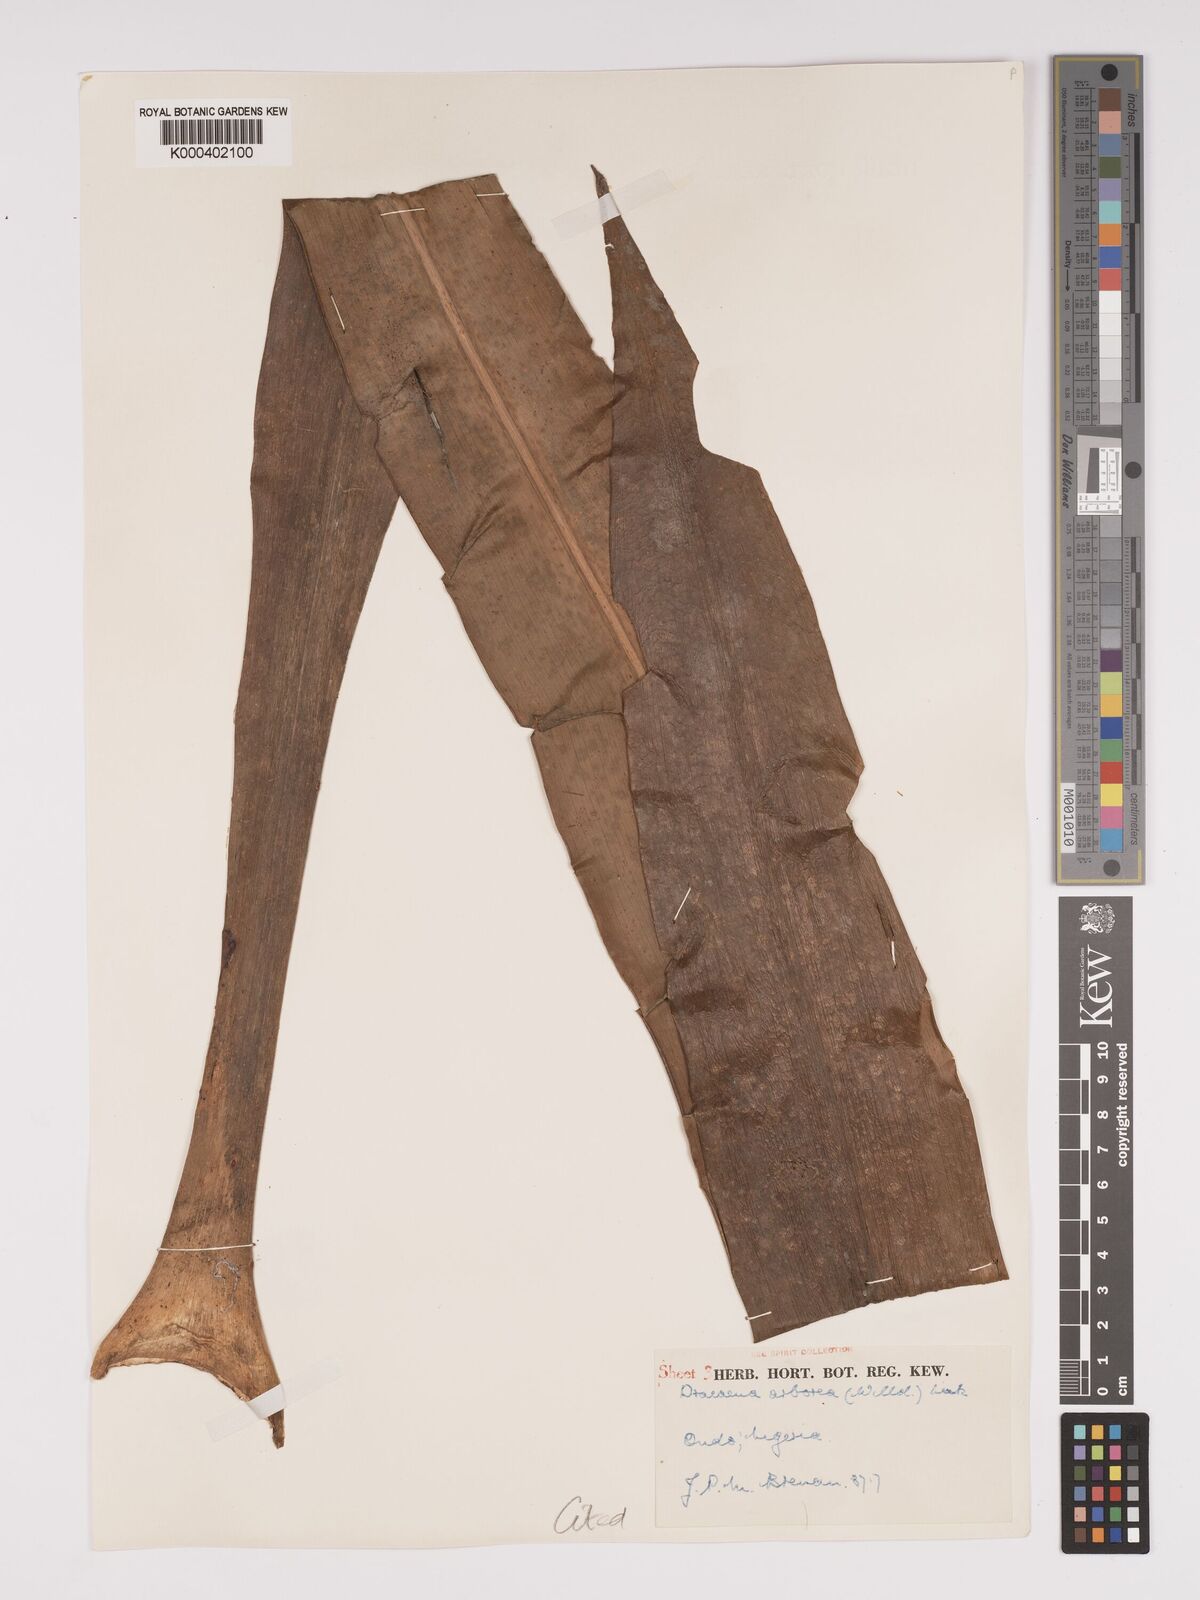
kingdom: Plantae
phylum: Tracheophyta
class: Liliopsida
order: Asparagales
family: Asparagaceae
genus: Dracaena
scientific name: Dracaena arborea
